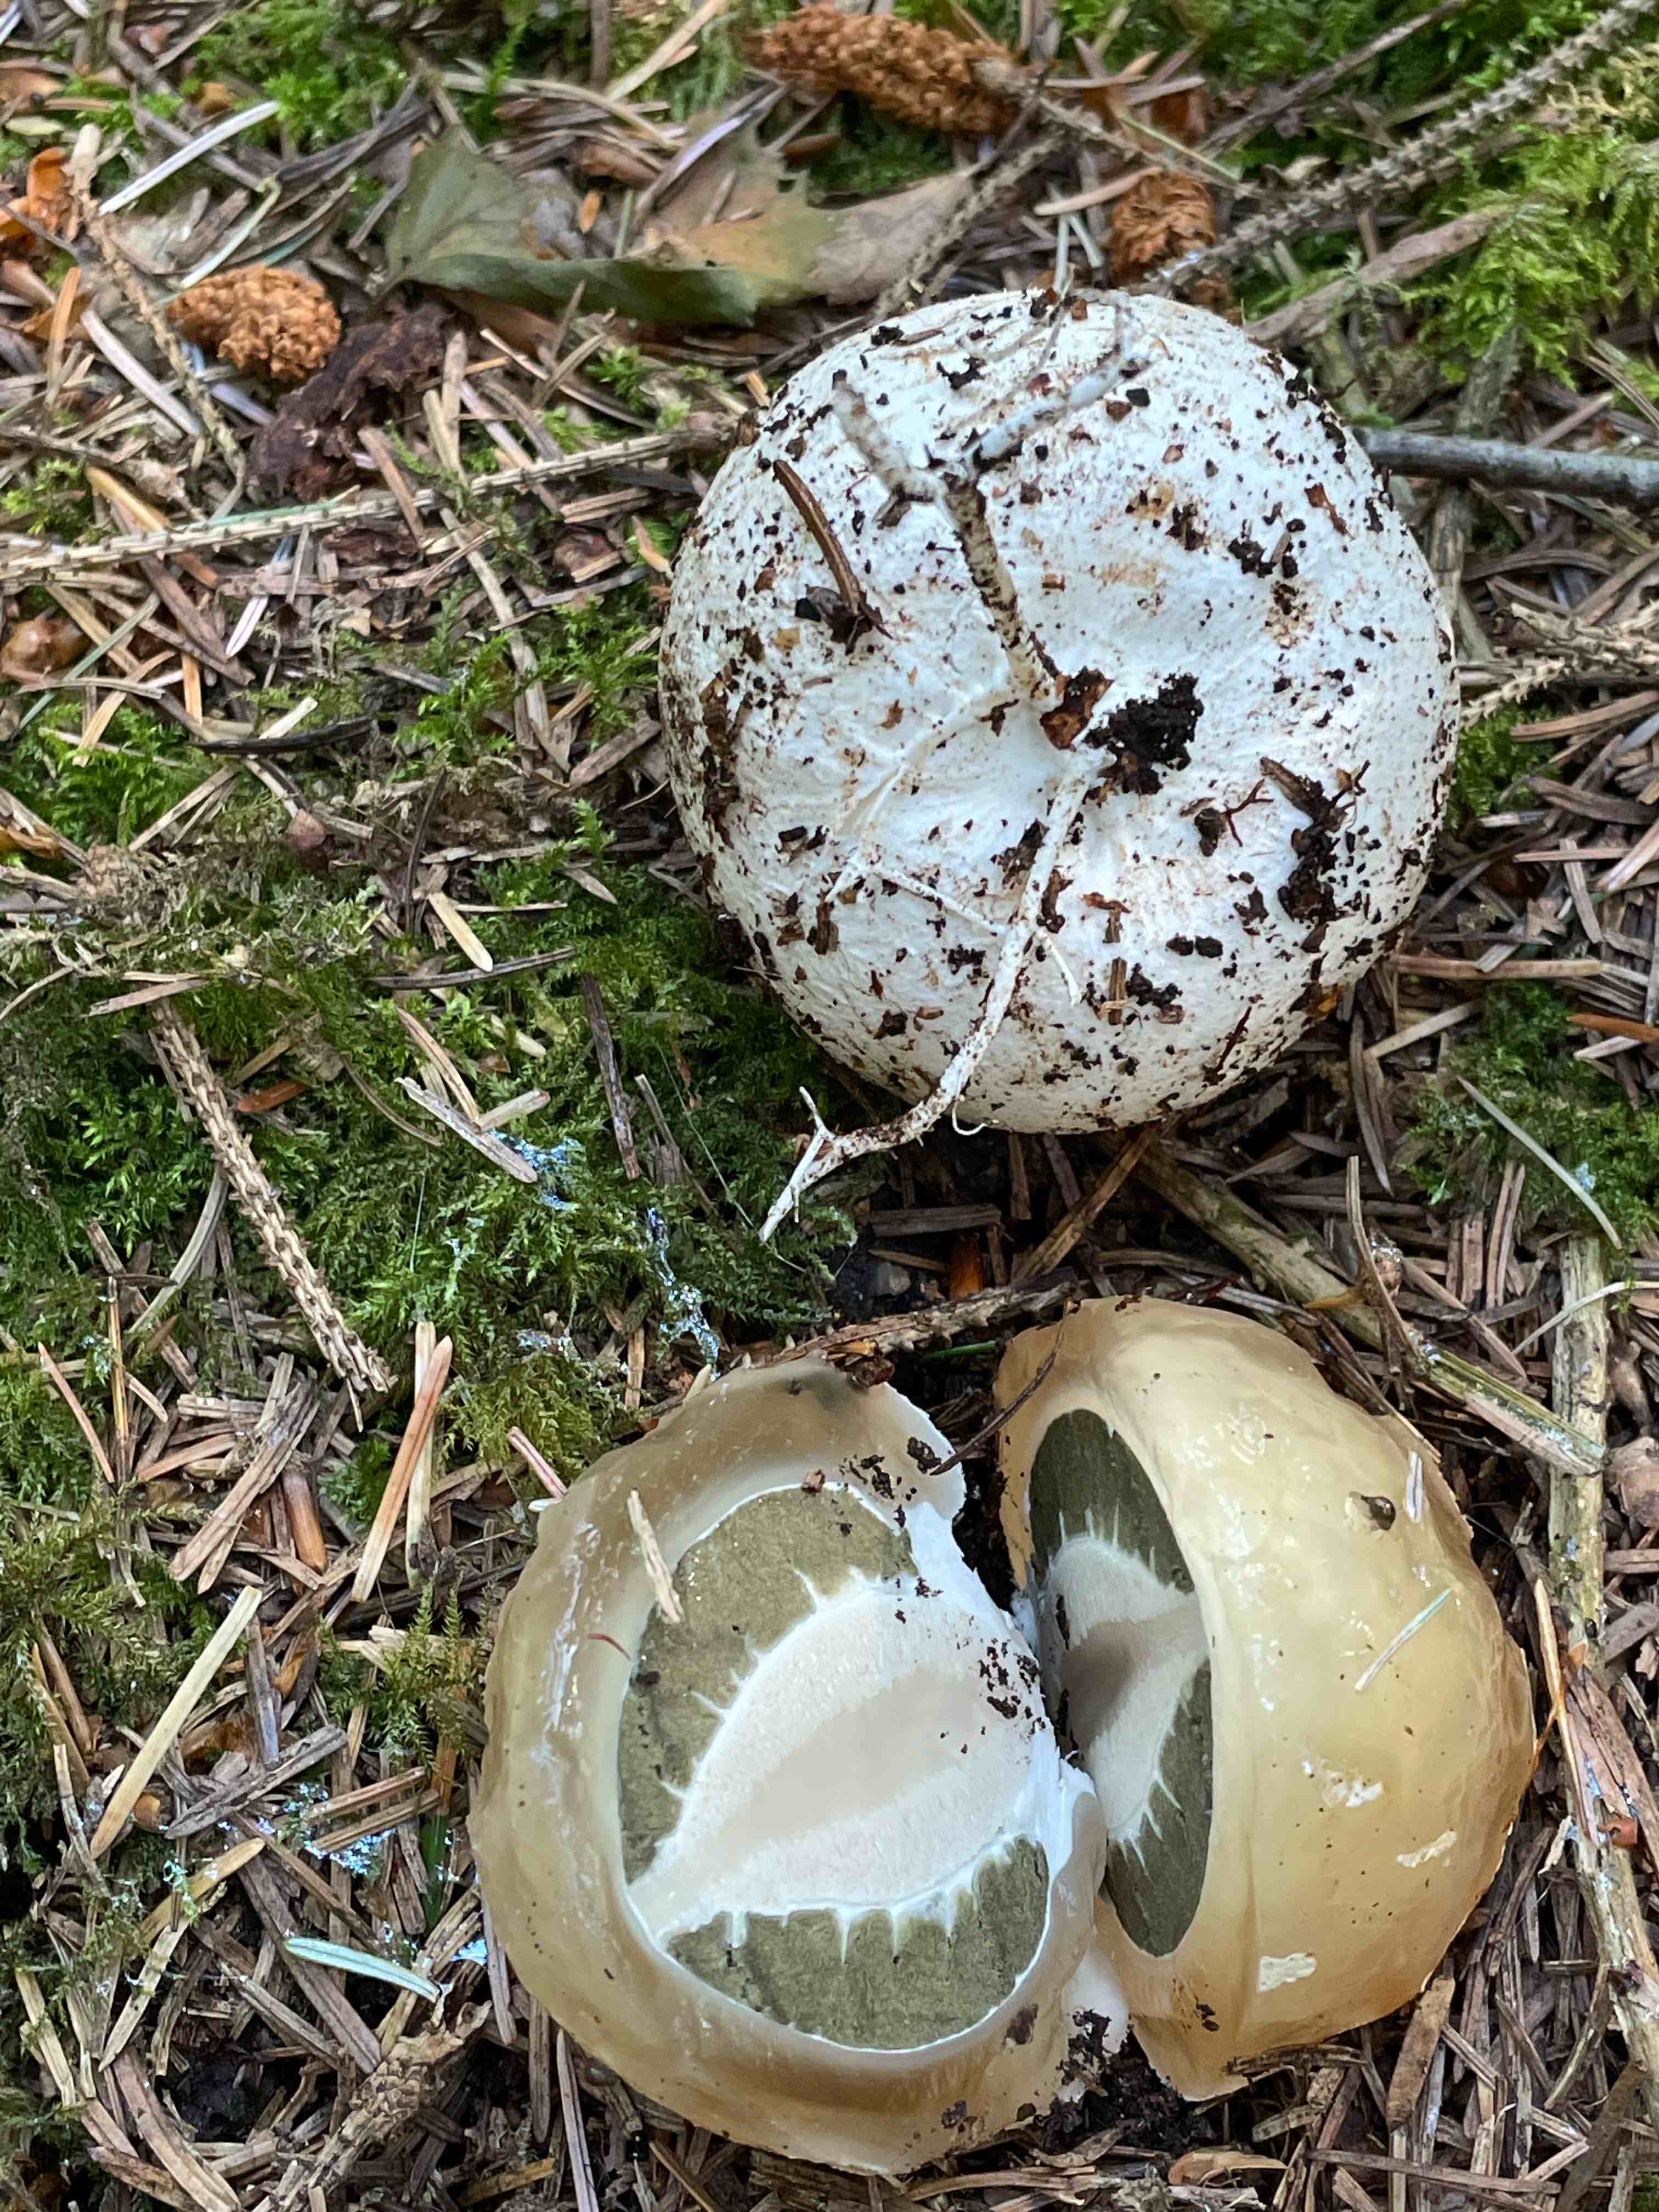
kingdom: Fungi
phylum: Basidiomycota
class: Agaricomycetes
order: Phallales
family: Phallaceae
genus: Phallus
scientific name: Phallus impudicus
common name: almindelig stinksvamp
